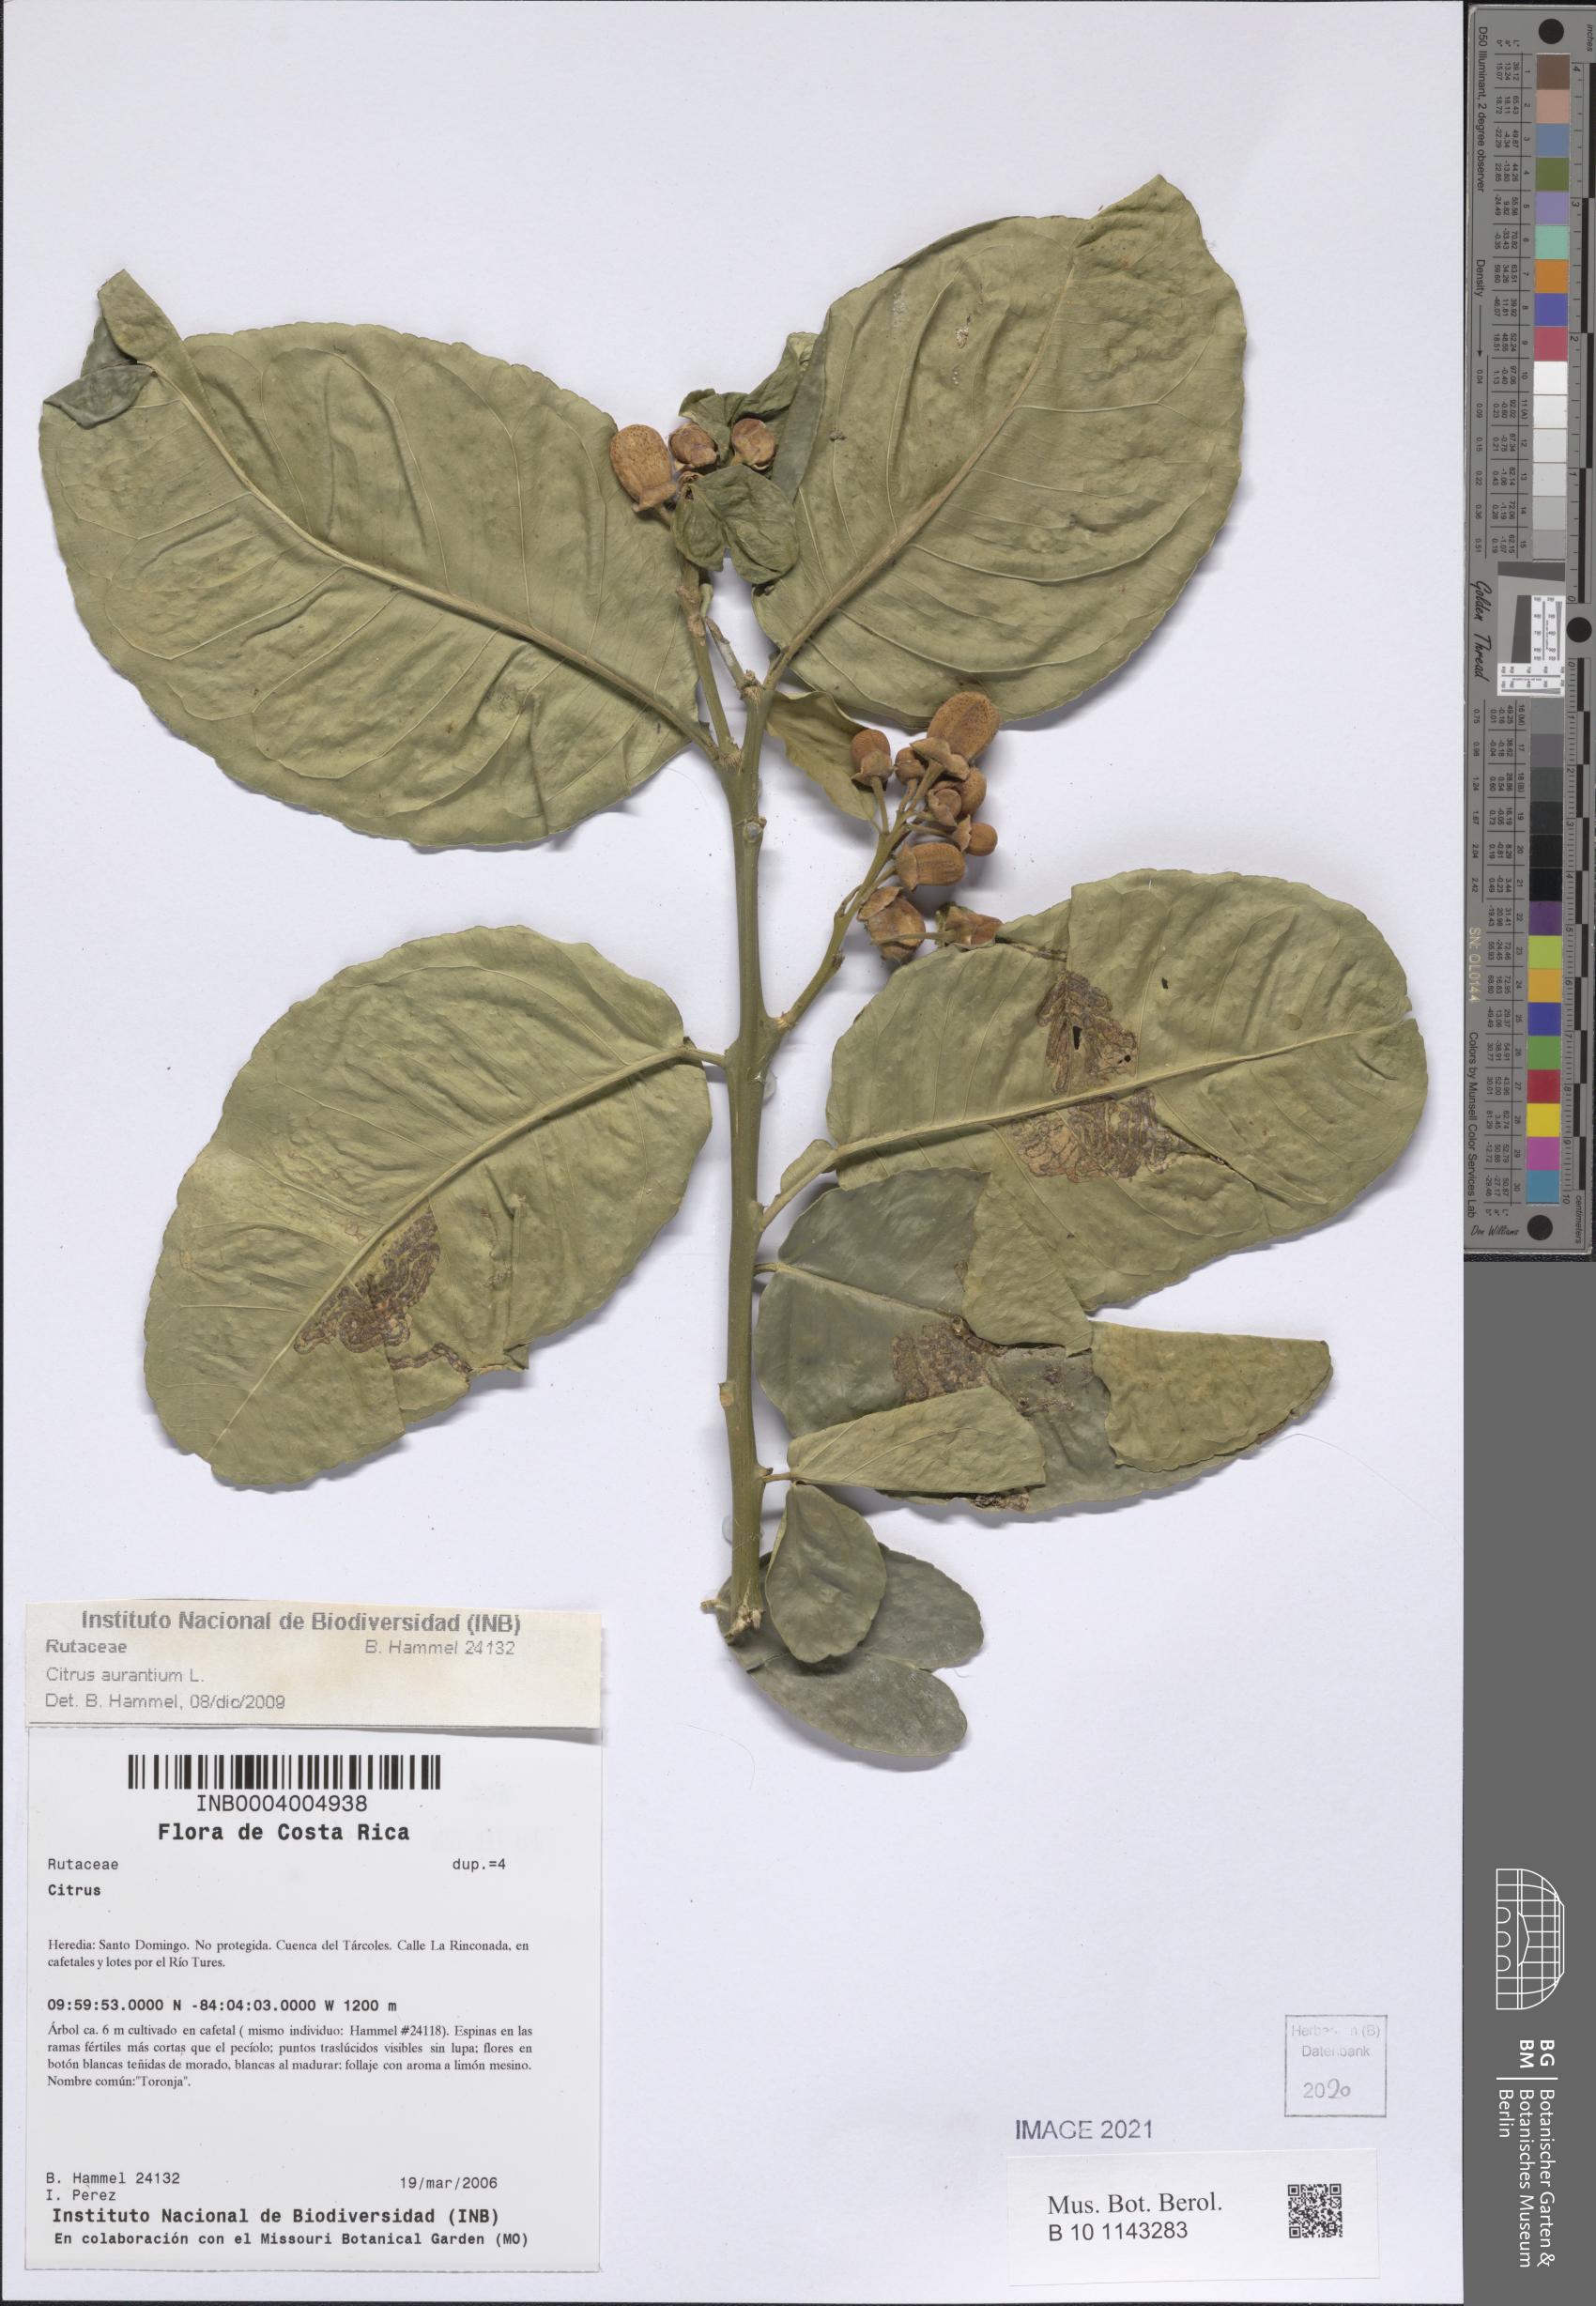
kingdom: Plantae
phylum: Tracheophyta
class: Magnoliopsida
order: Sapindales
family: Rutaceae
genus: Citrus
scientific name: Citrus aurantium
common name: Sour orange
